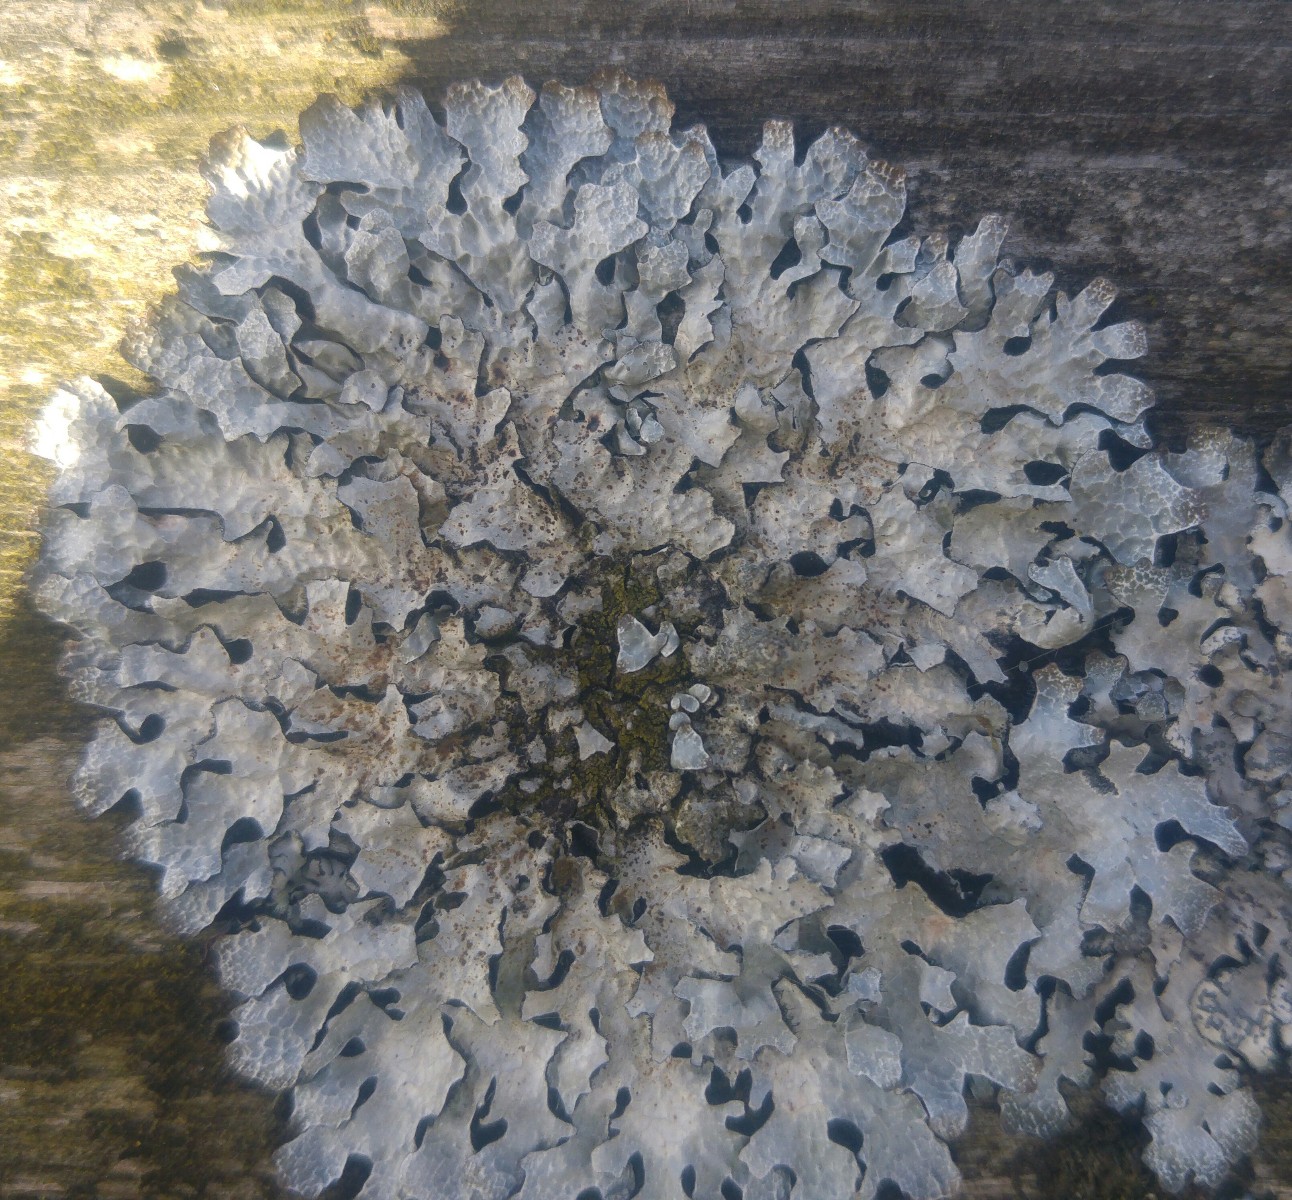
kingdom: Fungi
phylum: Ascomycota
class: Lecanoromycetes
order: Lecanorales
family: Parmeliaceae
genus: Parmelia
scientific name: Parmelia sulcata
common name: rynket skållav
